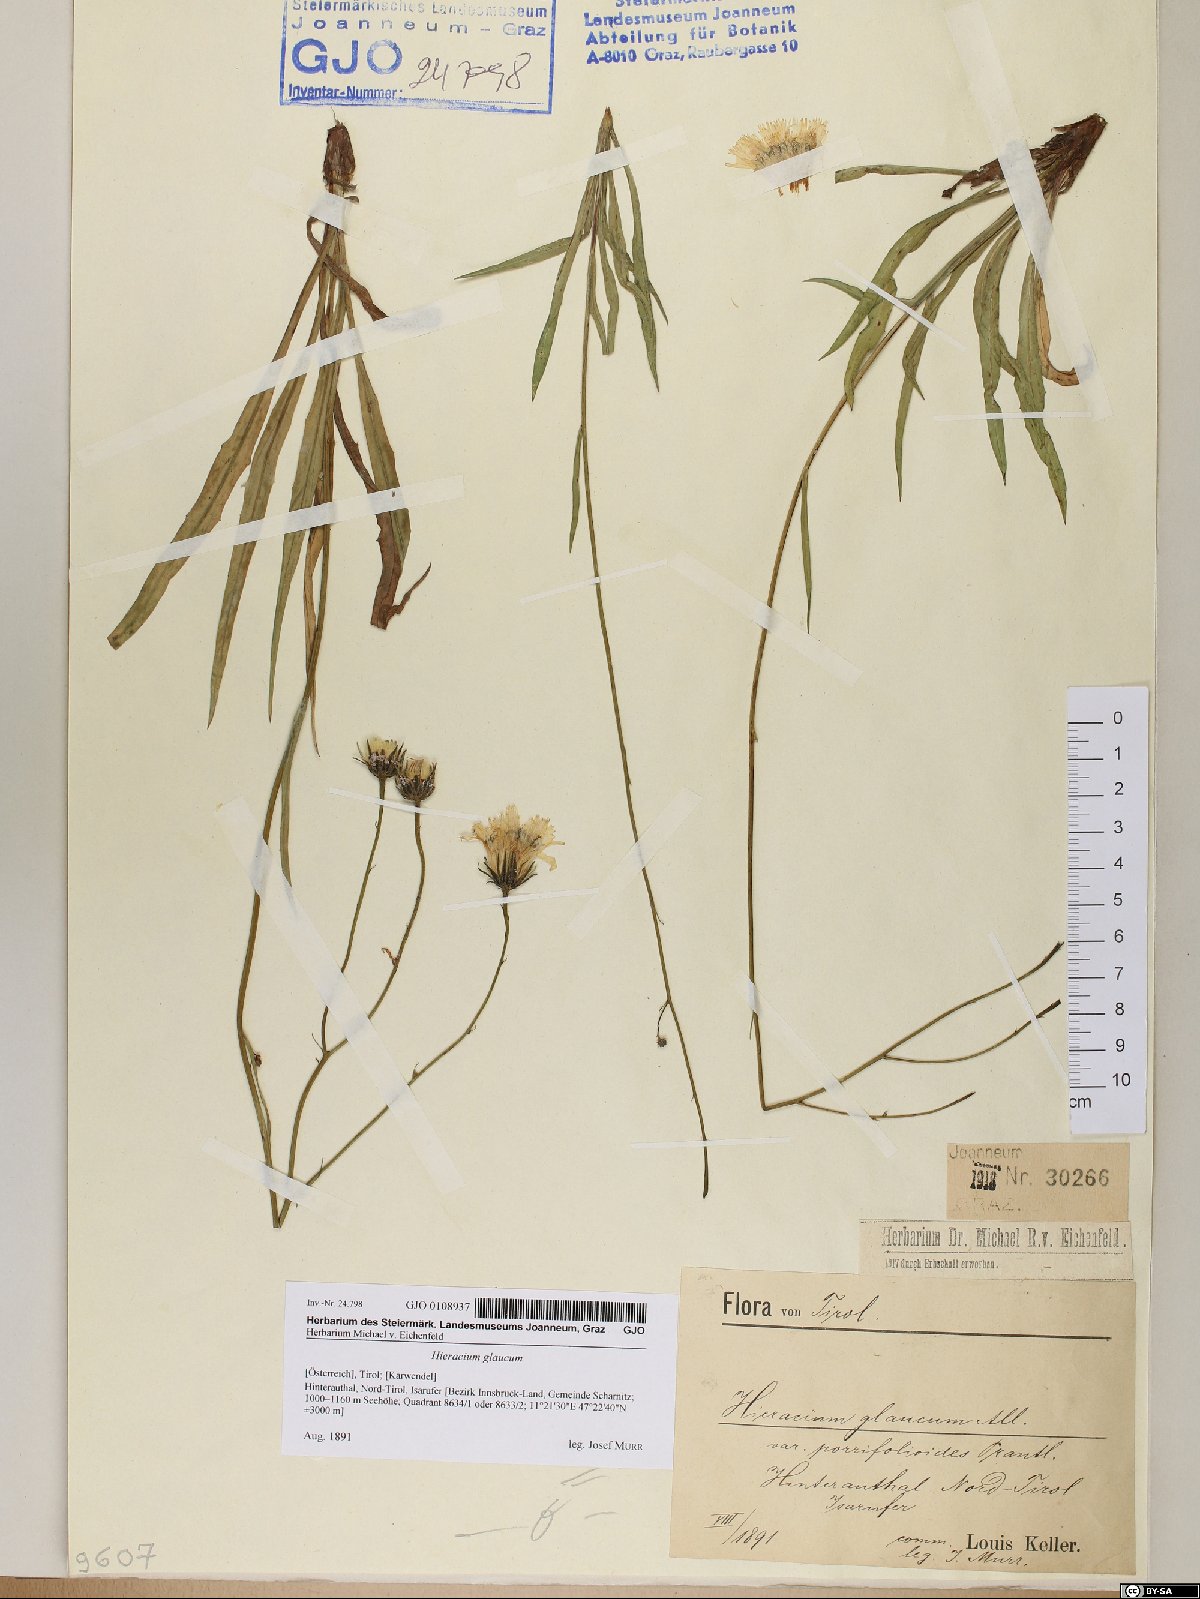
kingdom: Plantae
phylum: Tracheophyta
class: Magnoliopsida
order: Asterales
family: Asteraceae
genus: Hieracium
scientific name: Hieracium glaucum
